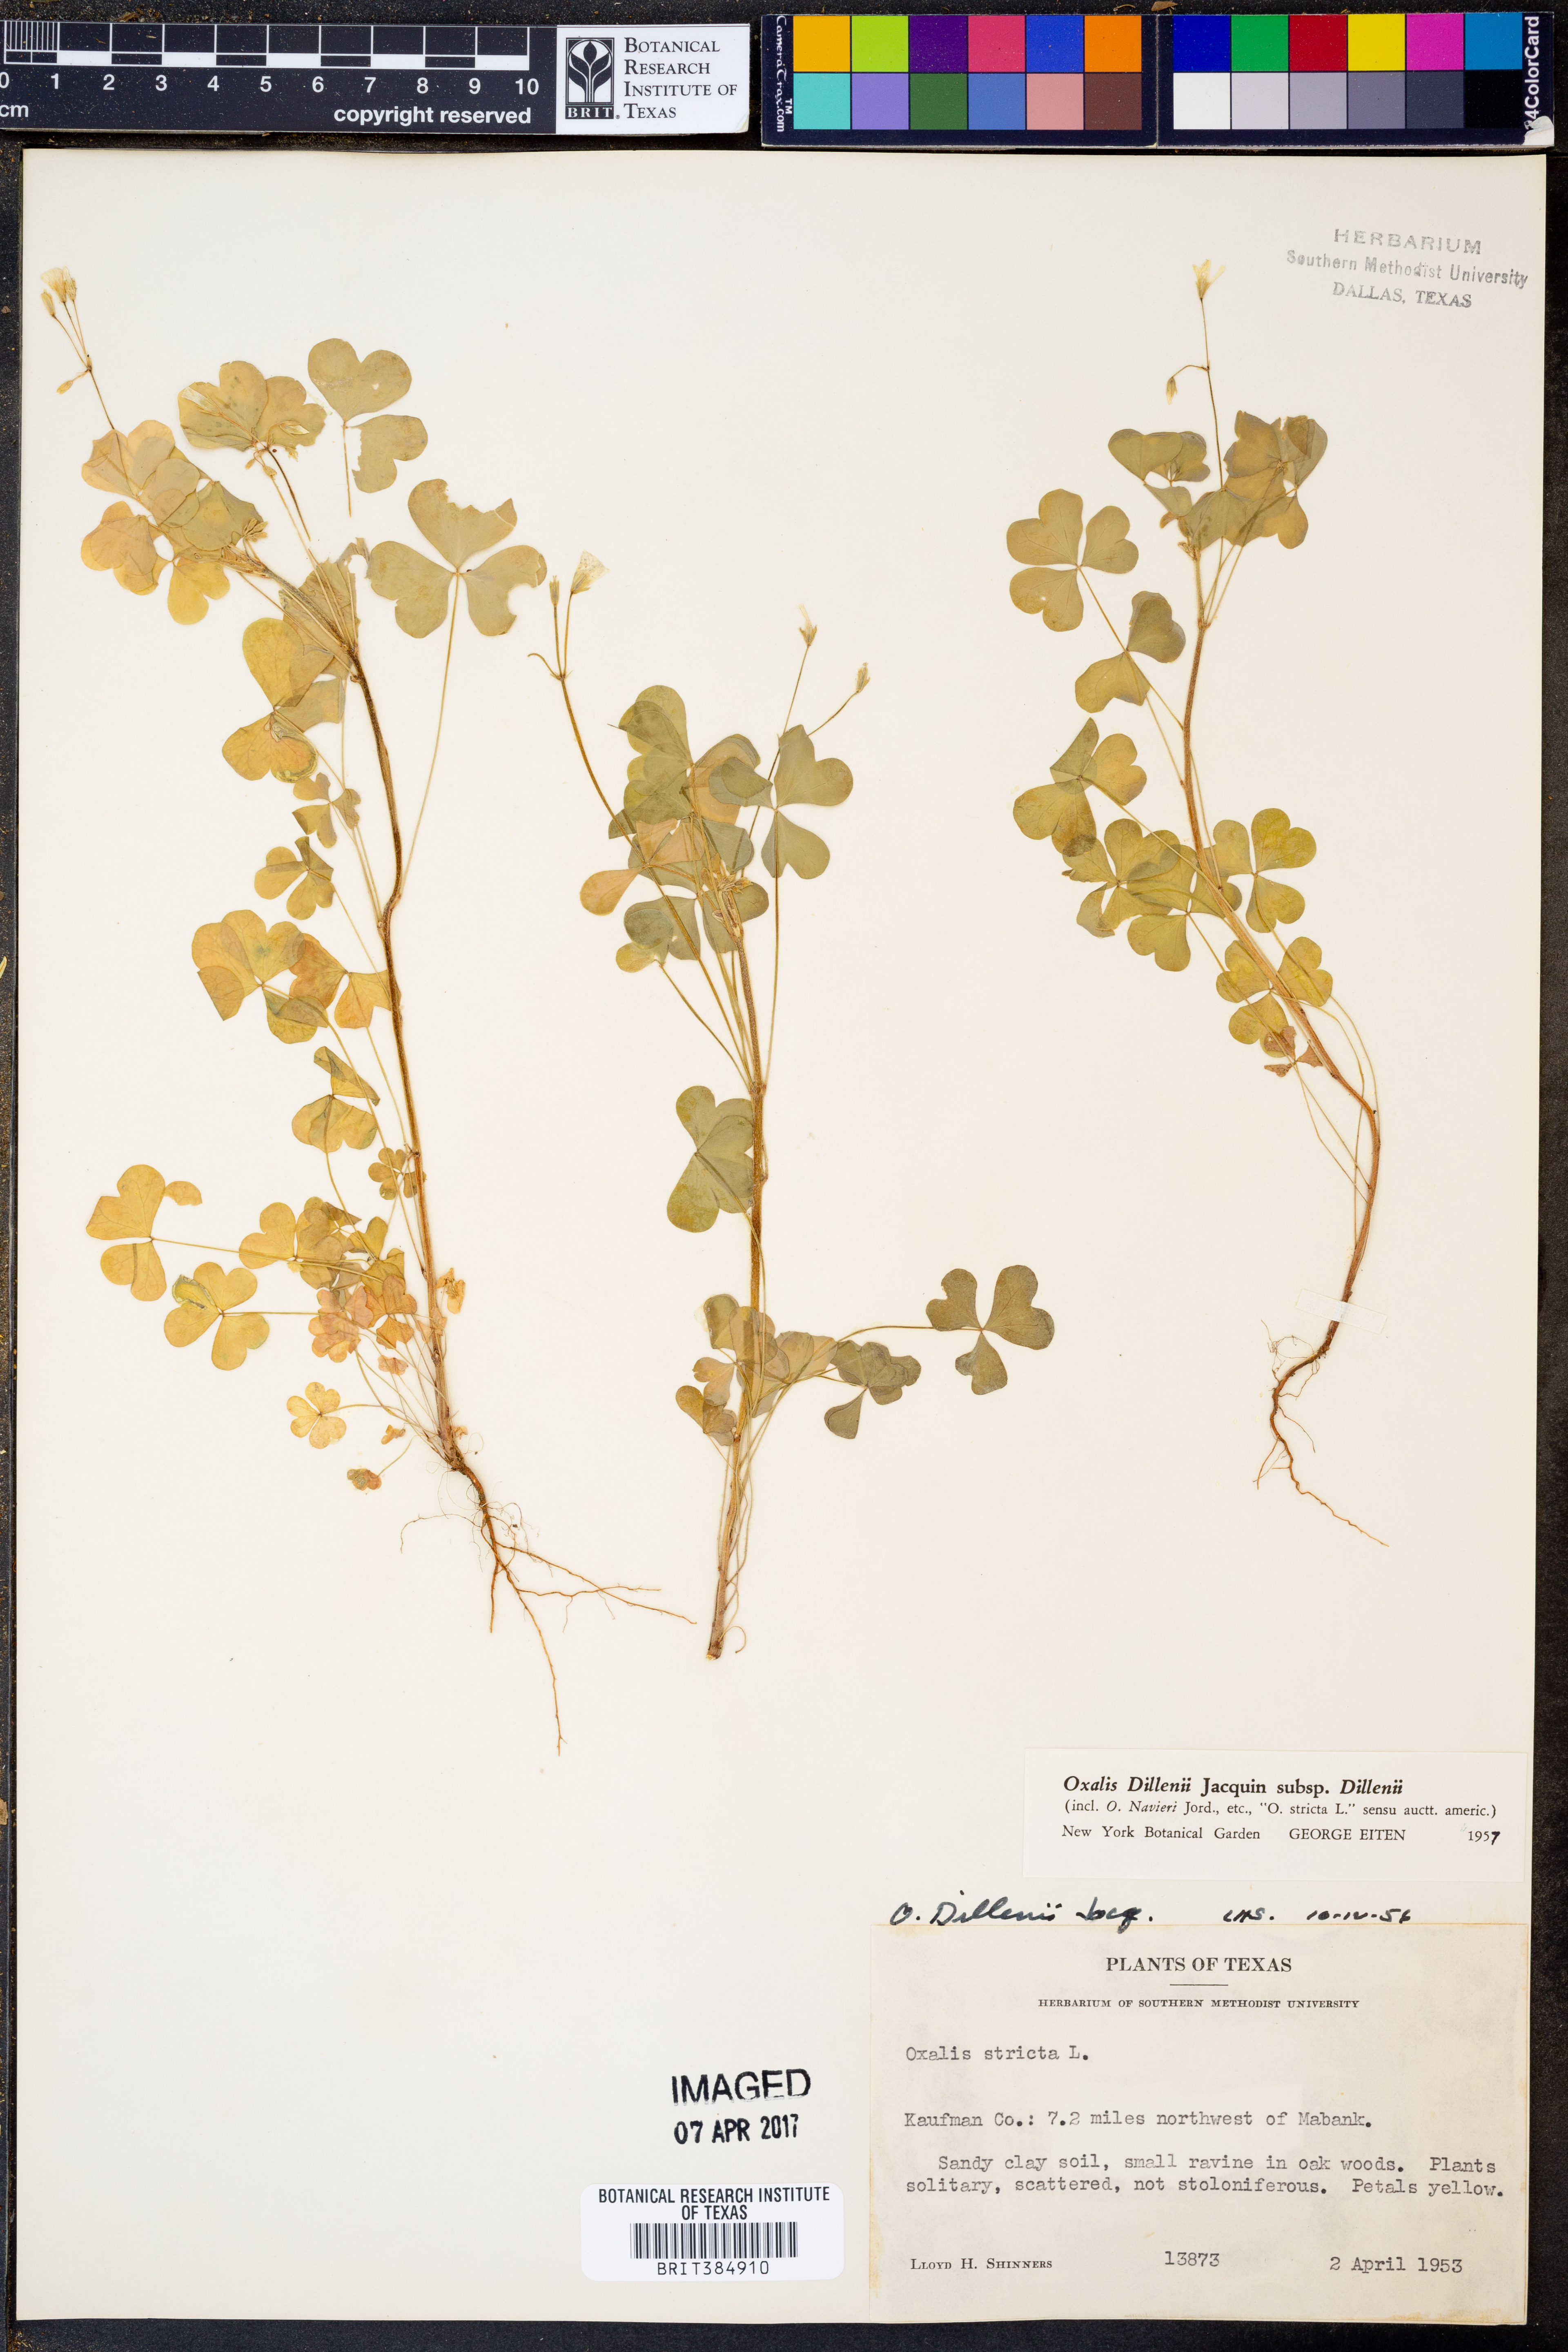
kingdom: Plantae
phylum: Tracheophyta
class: Magnoliopsida
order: Oxalidales
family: Oxalidaceae
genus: Oxalis
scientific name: Oxalis dillenii
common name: Sussex yellow-sorrel
